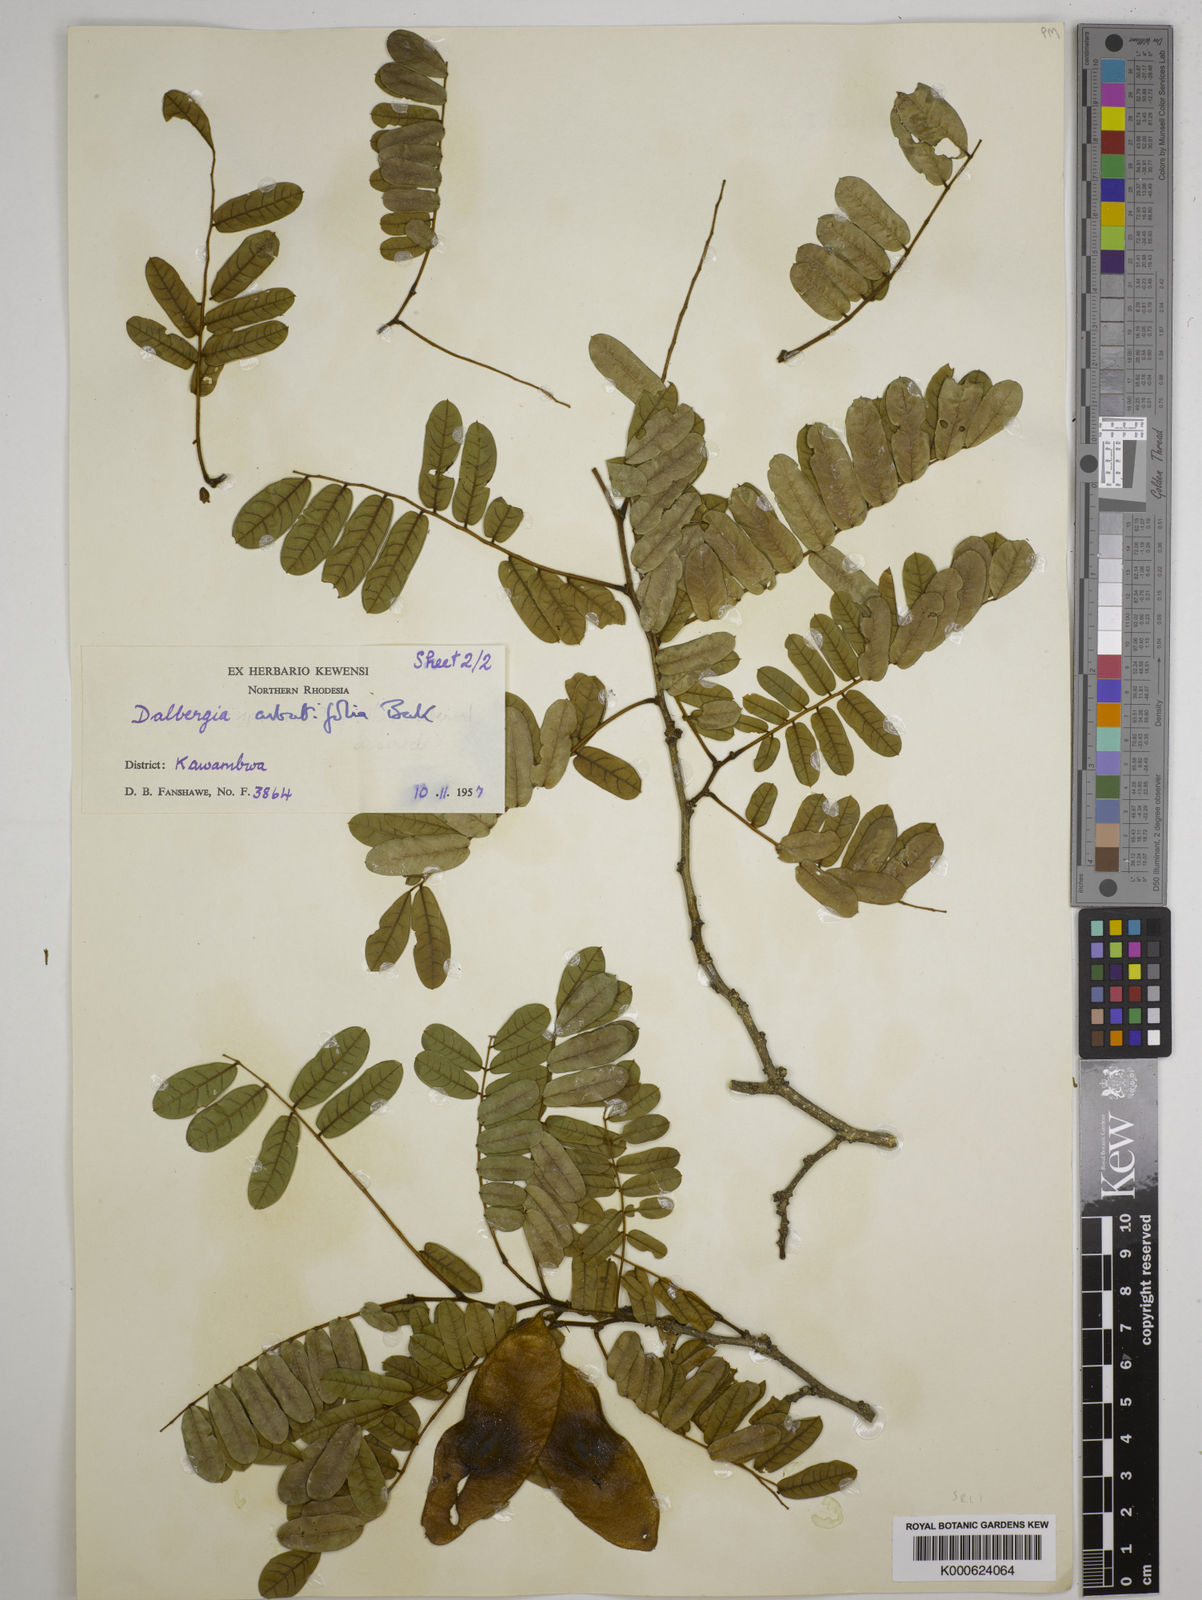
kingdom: Plantae
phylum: Tracheophyta
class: Magnoliopsida
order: Fabales
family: Fabaceae
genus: Dalbergia
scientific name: Dalbergia arbutifolia
